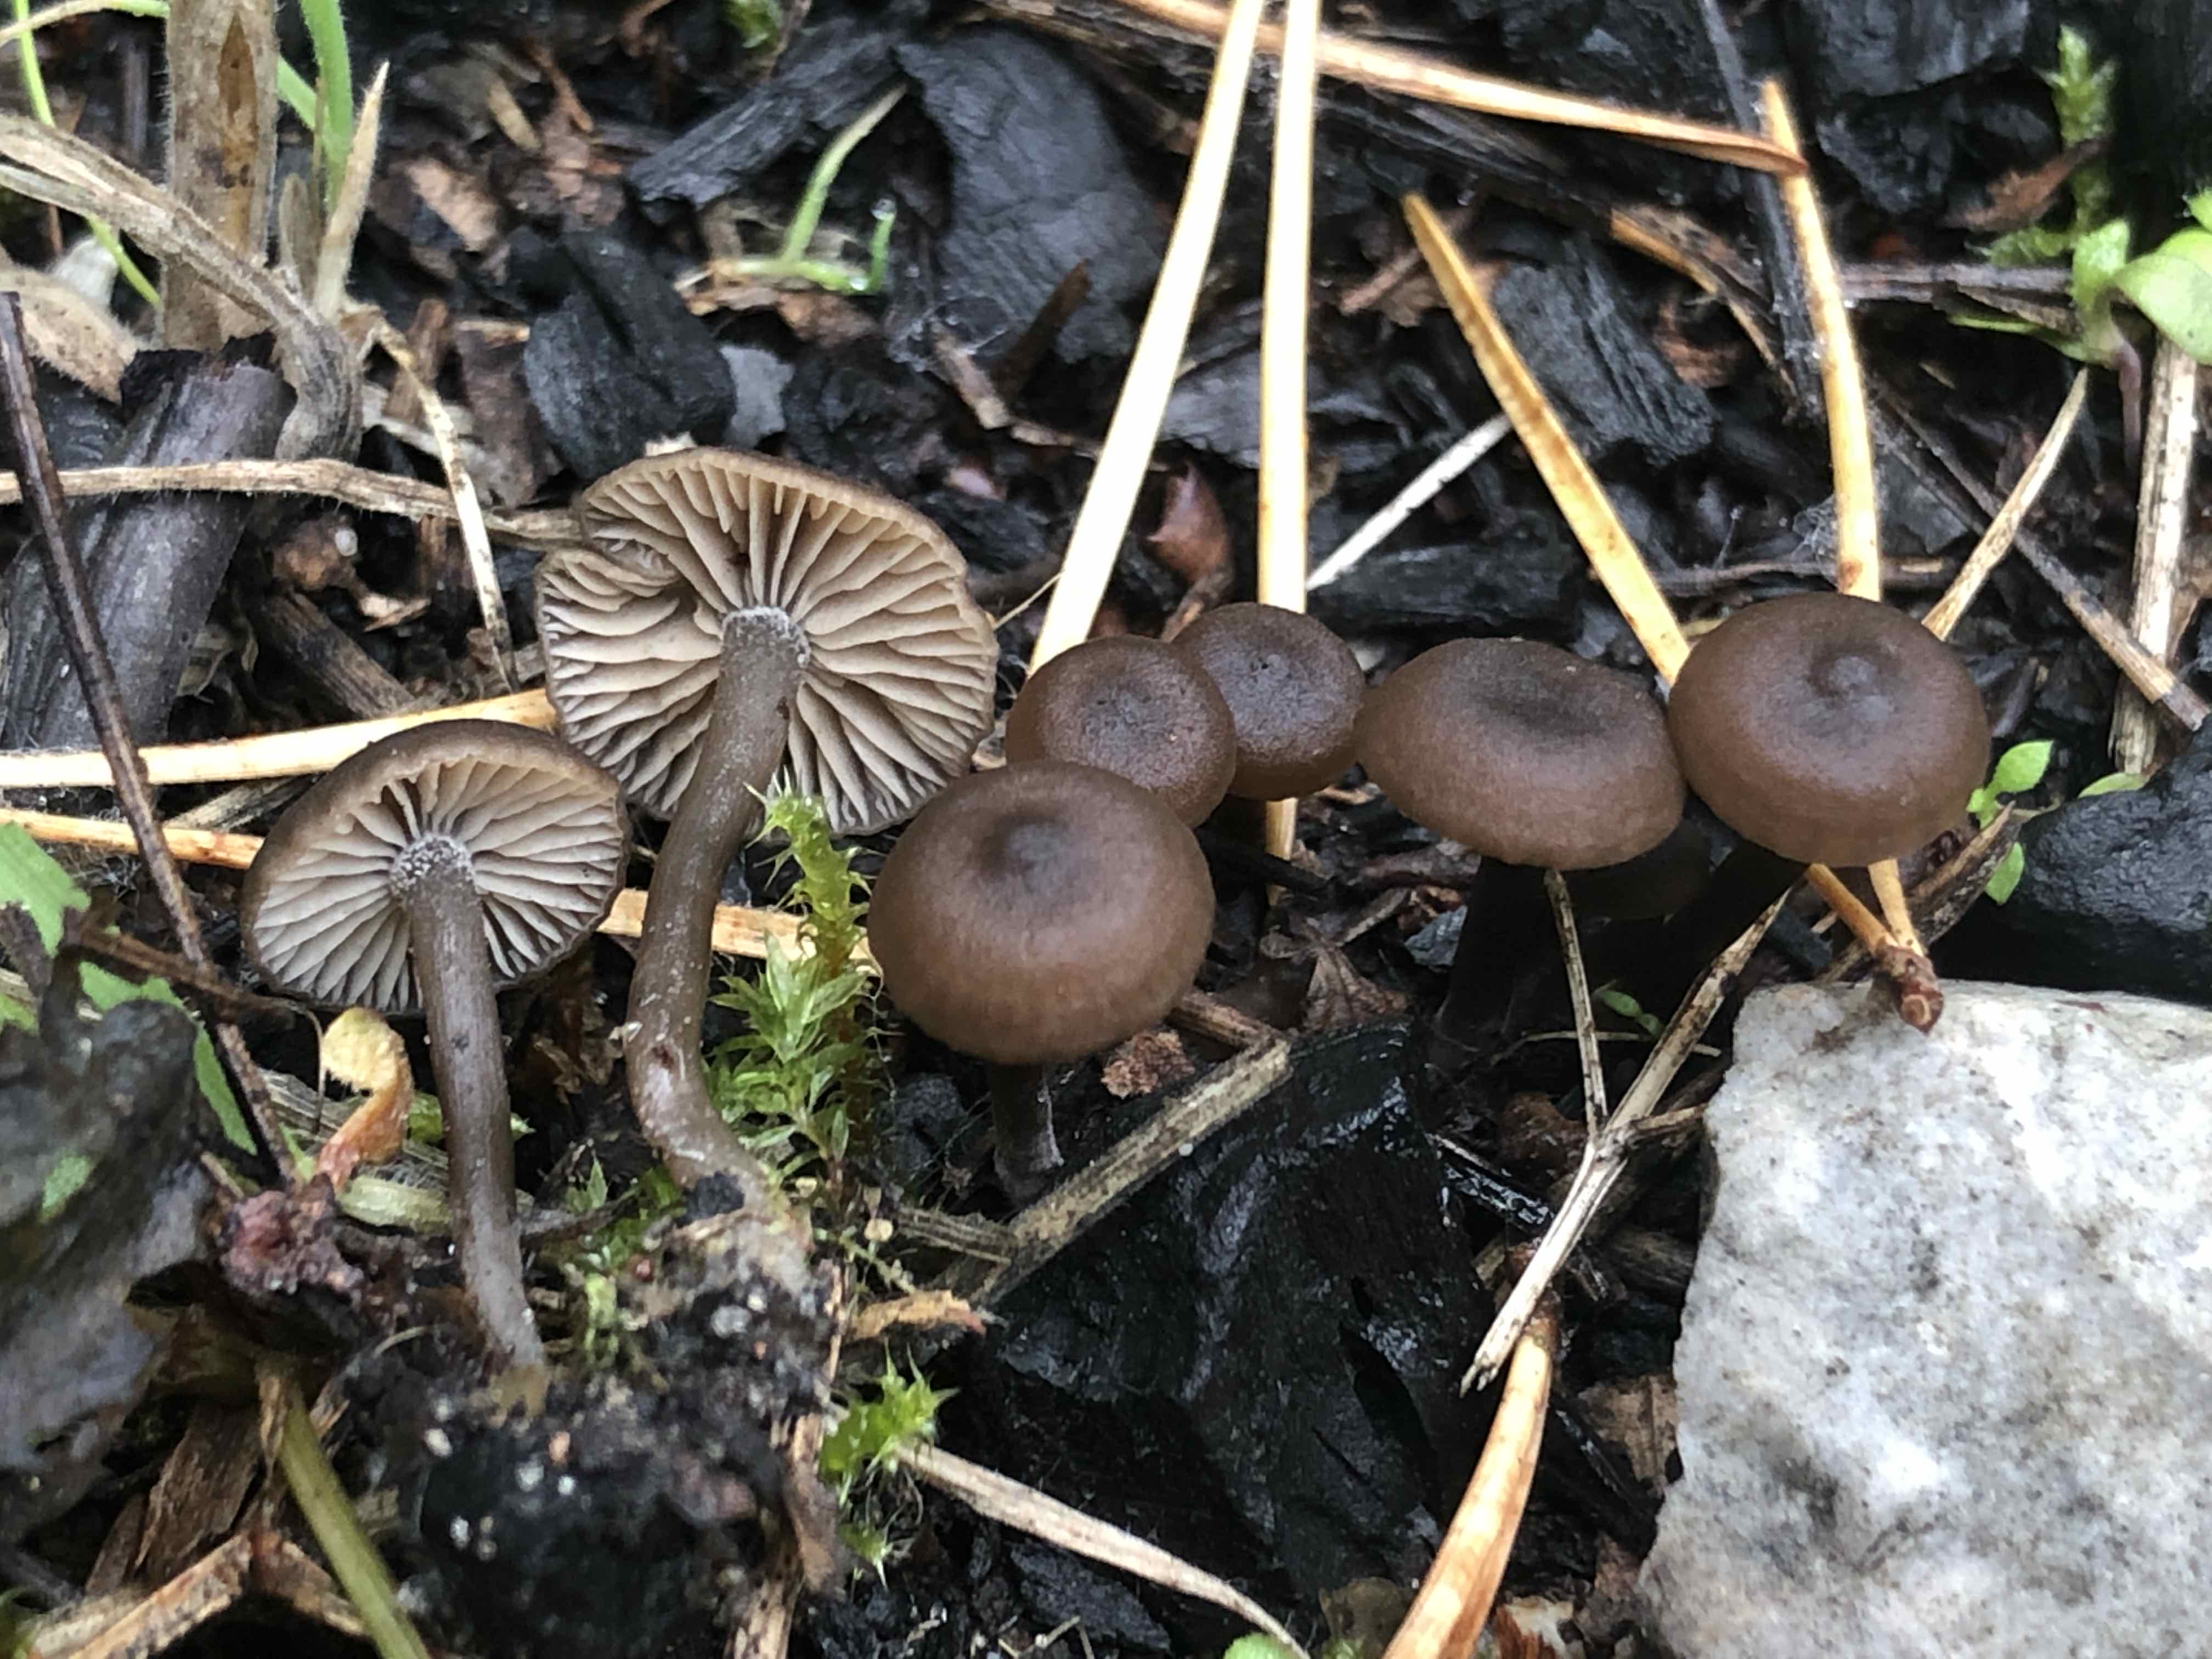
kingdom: Fungi
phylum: Basidiomycota
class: Agaricomycetes
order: Agaricales
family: Lyophyllaceae
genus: Lyophyllum
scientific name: Lyophyllum
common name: gråblad
